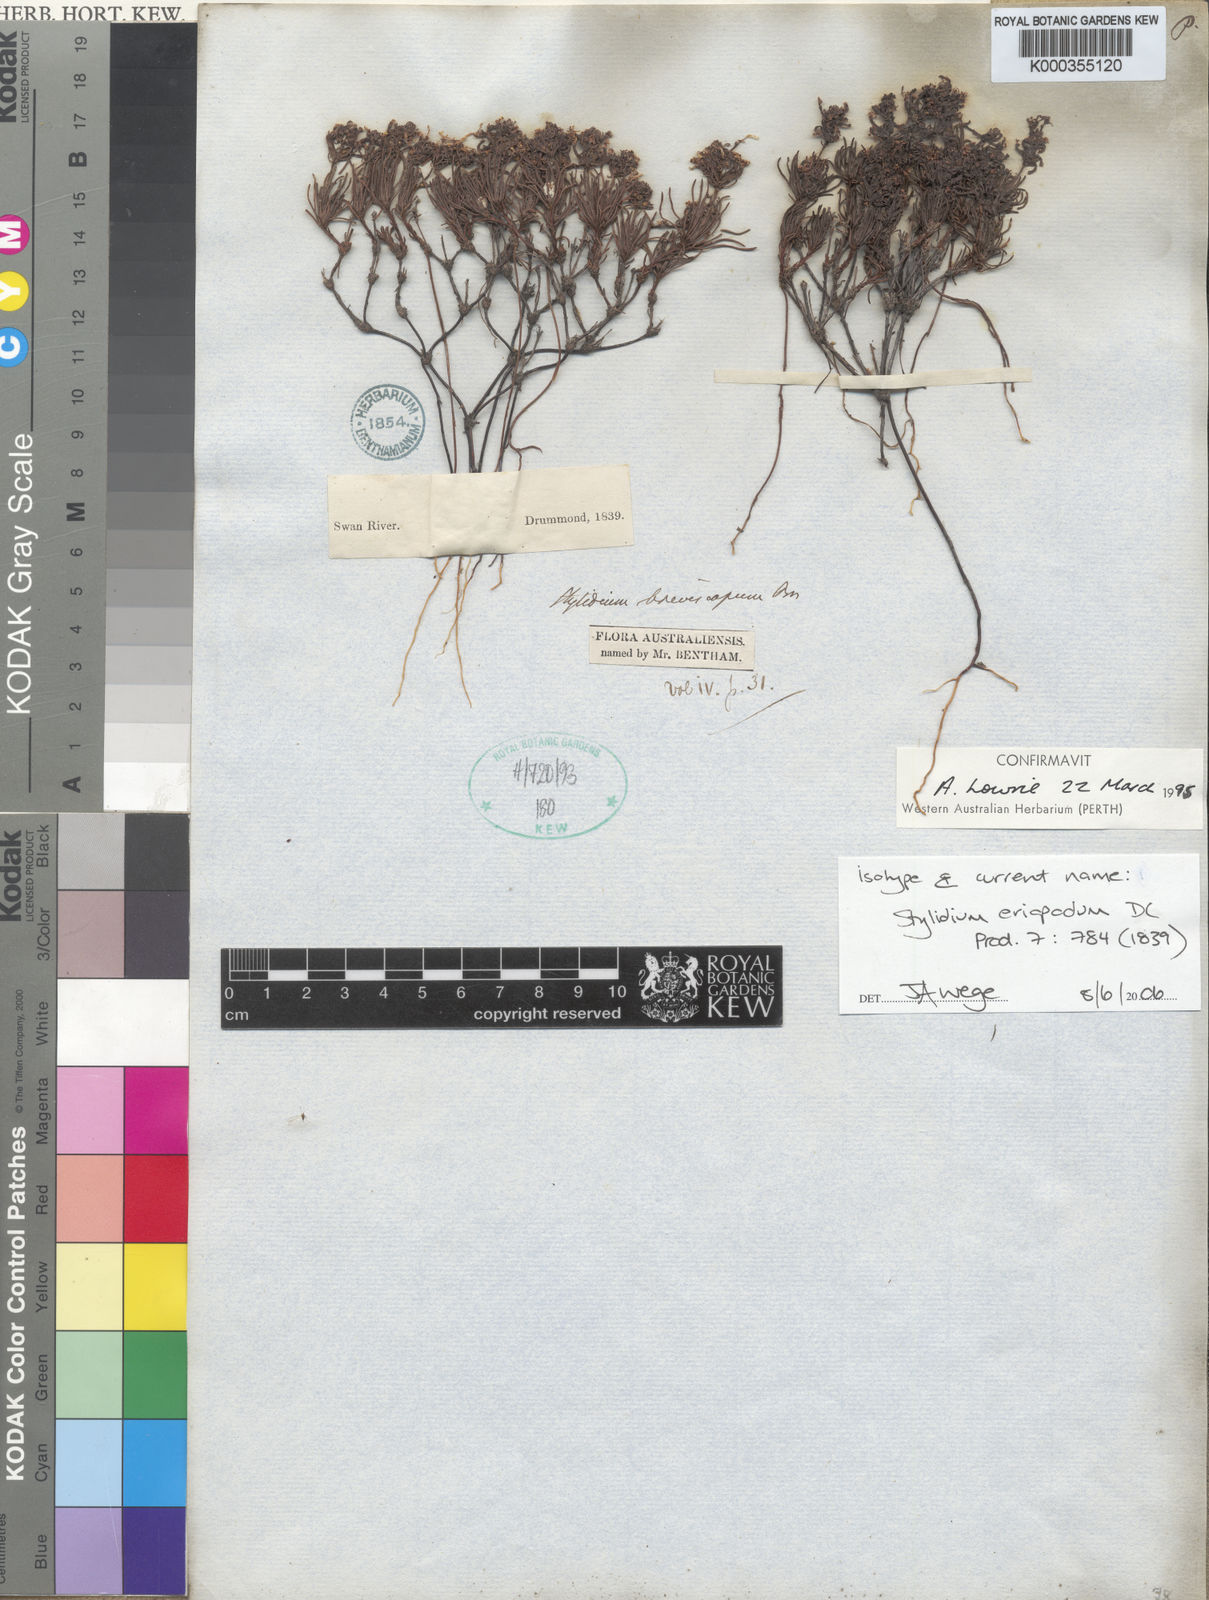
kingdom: Plantae
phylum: Tracheophyta
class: Magnoliopsida
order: Asterales
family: Stylidiaceae
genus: Stylidium
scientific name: Stylidium breviscapum
